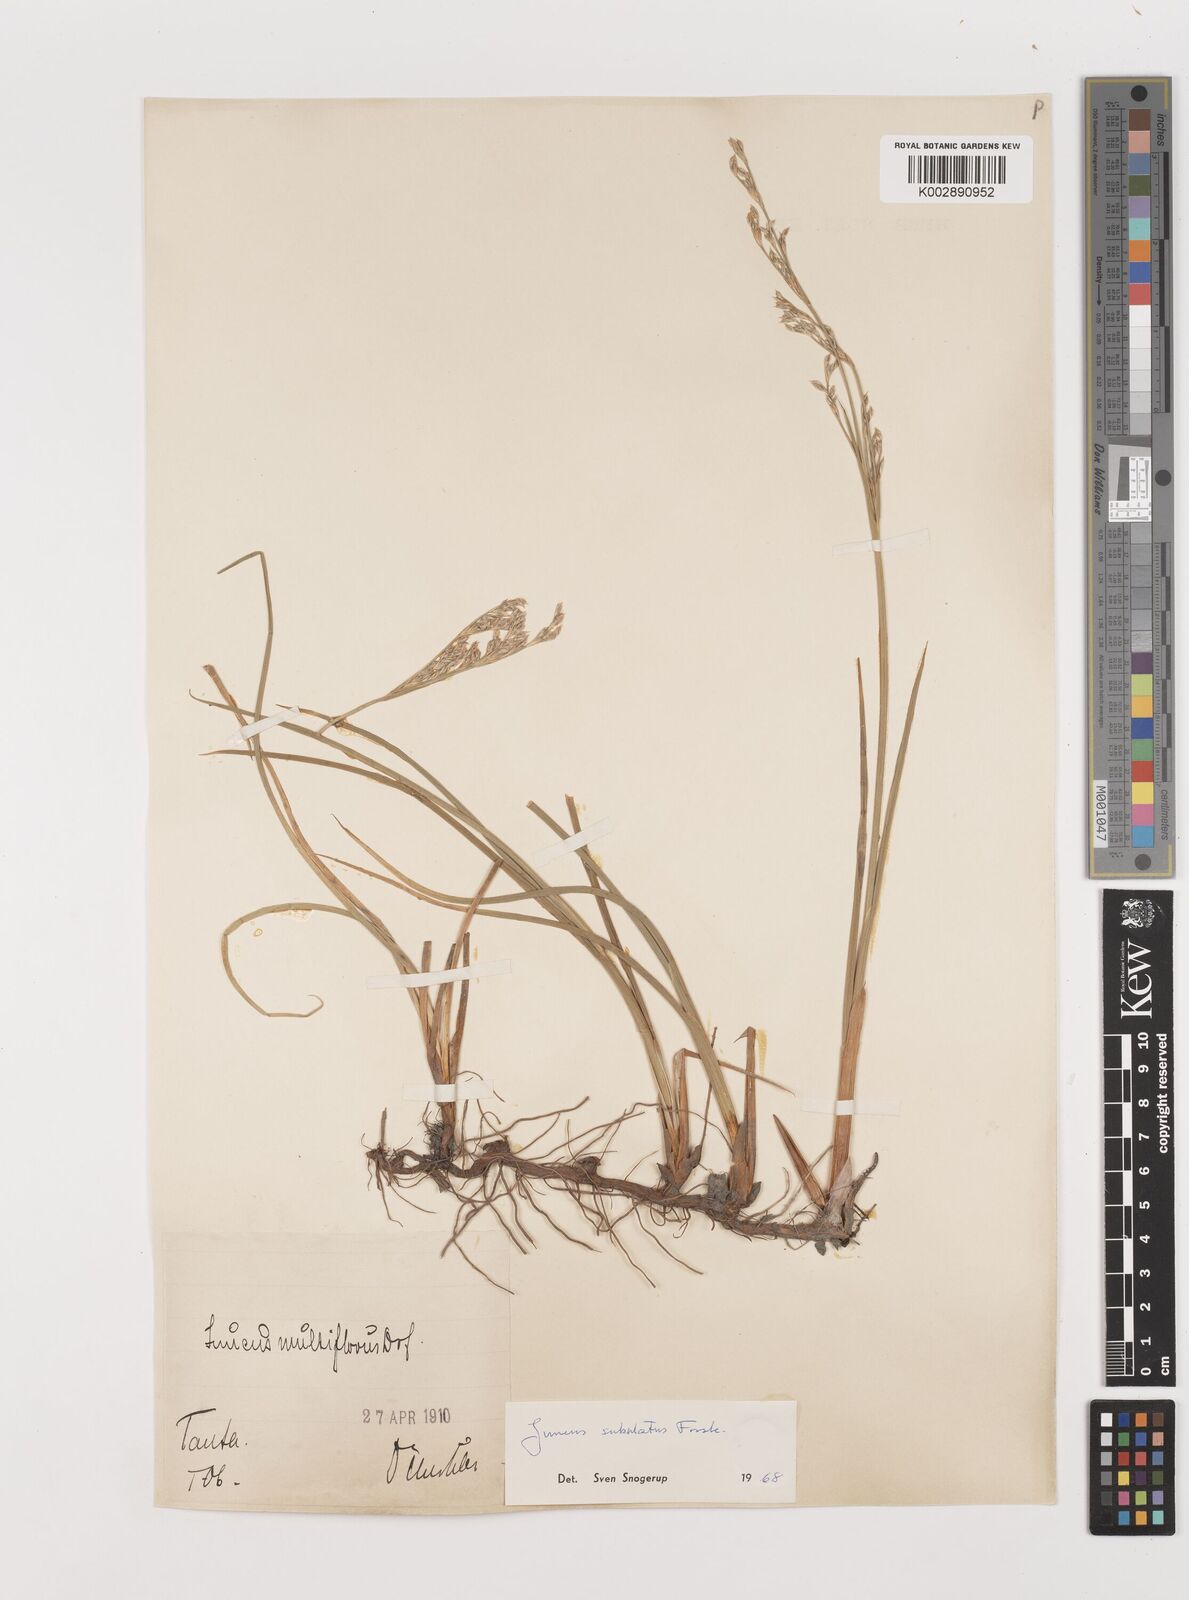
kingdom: Plantae
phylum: Tracheophyta
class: Liliopsida
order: Poales
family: Juncaceae
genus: Juncus
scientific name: Juncus subulatus
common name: Somerset rush
